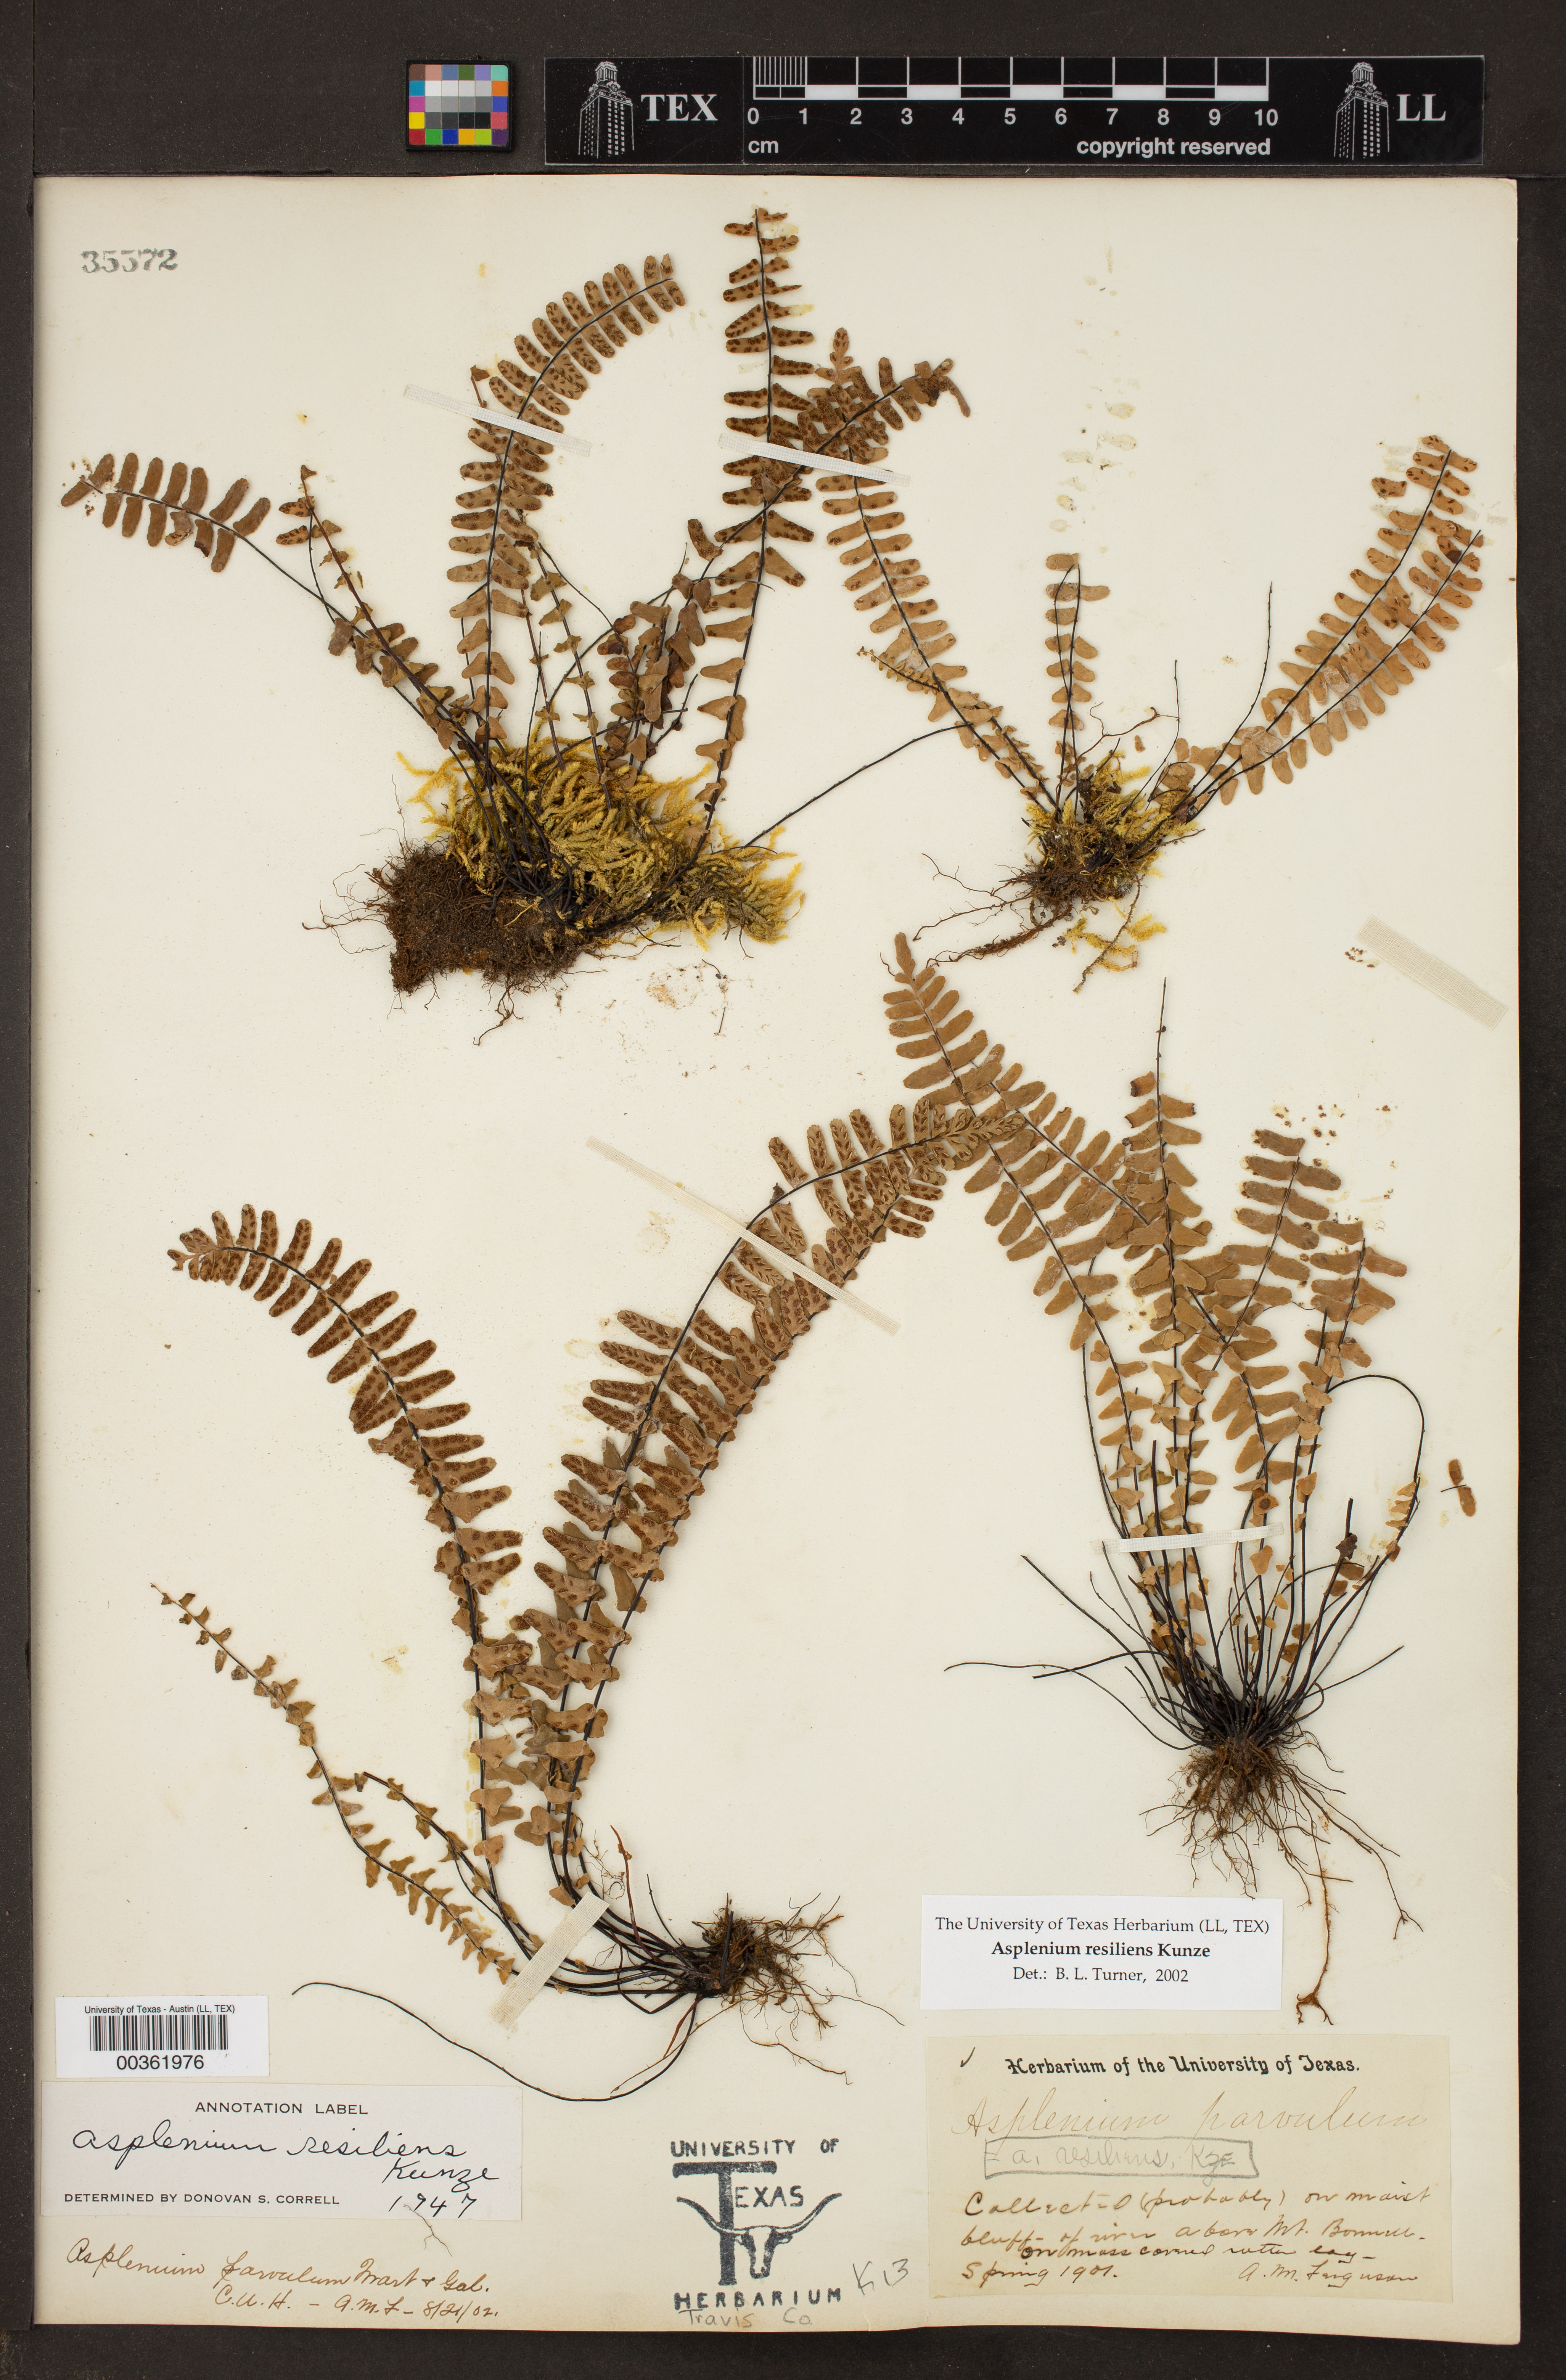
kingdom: Plantae
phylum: Tracheophyta
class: Polypodiopsida
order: Polypodiales
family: Aspleniaceae
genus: Asplenium
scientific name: Asplenium resiliens
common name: Blackstem spleenwort
